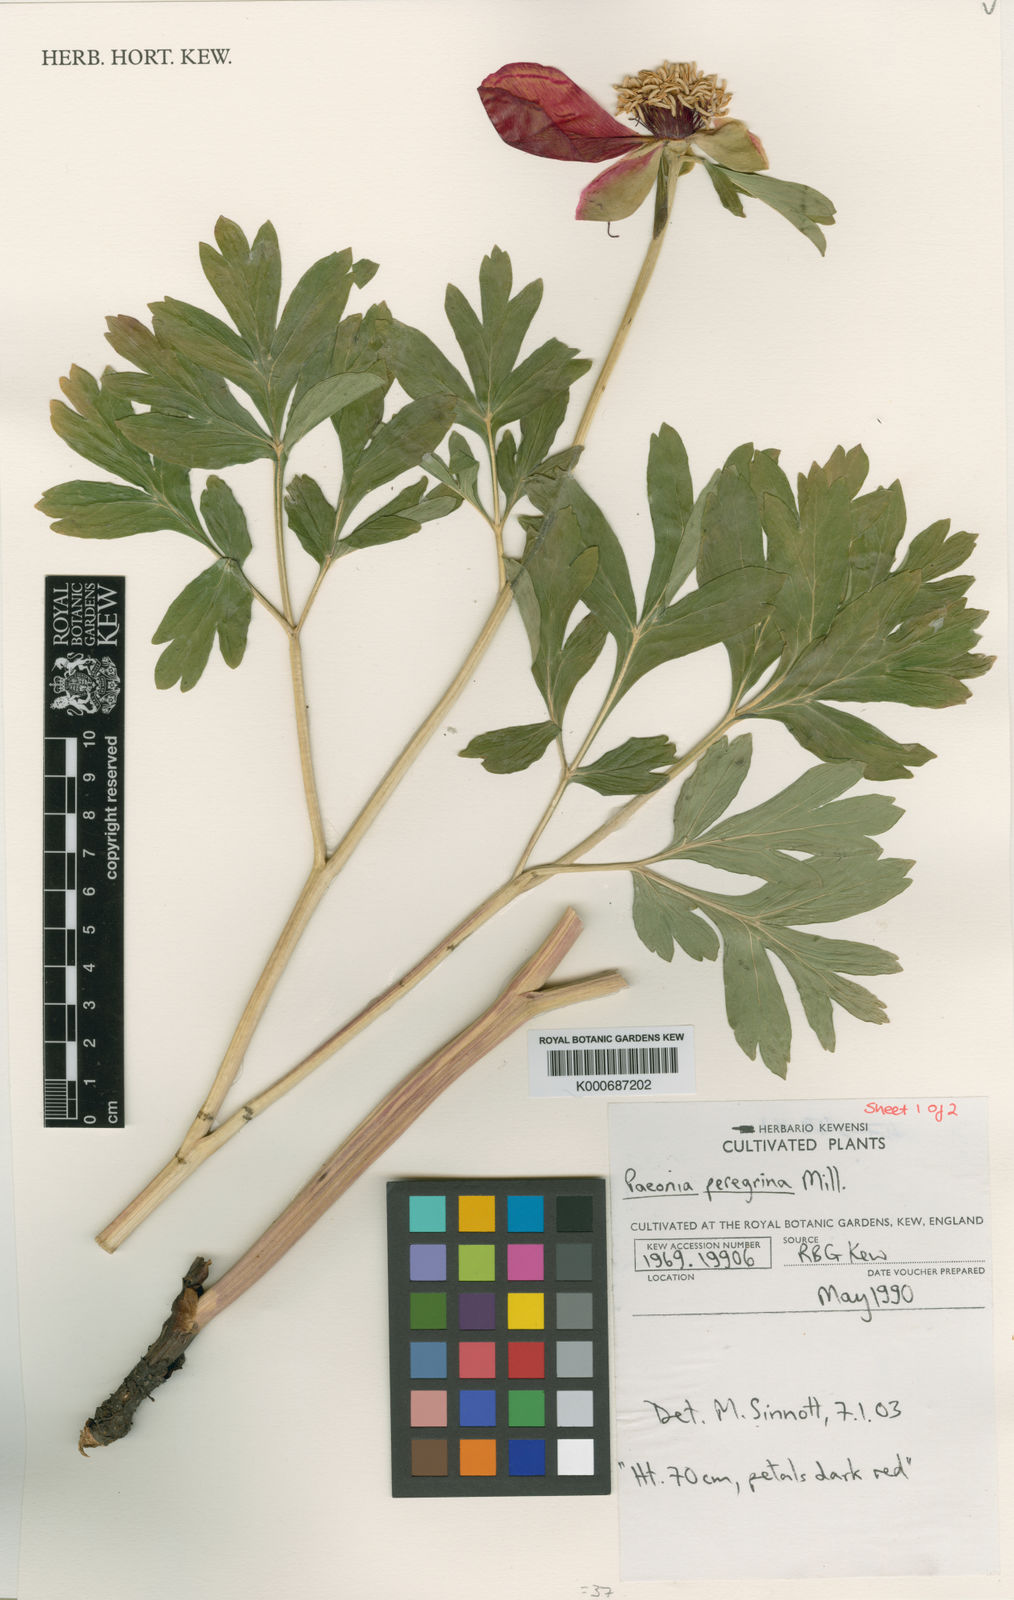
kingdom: Plantae
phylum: Tracheophyta
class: Magnoliopsida
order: Saxifragales
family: Paeoniaceae
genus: Paeonia
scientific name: Paeonia peregrina
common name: Scarlet peony
